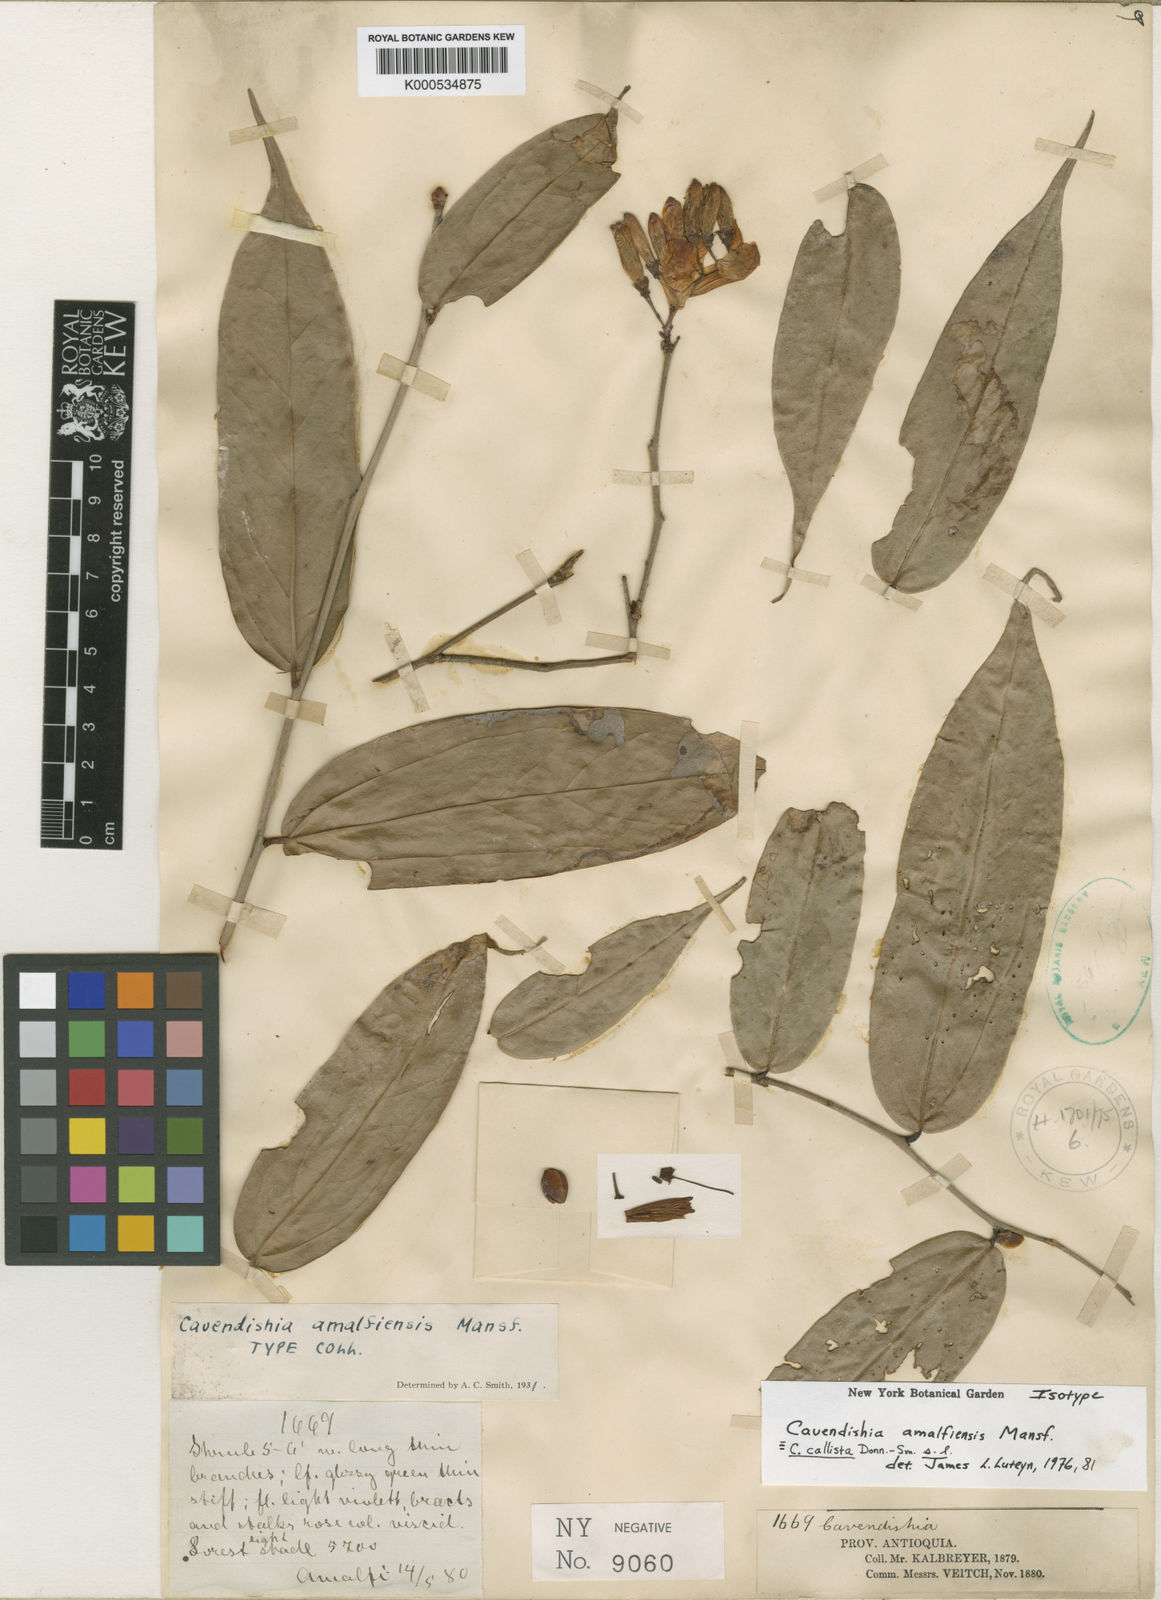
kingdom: Plantae
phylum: Tracheophyta
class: Magnoliopsida
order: Ericales
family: Ericaceae
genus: Cavendishia
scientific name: Cavendishia callista
